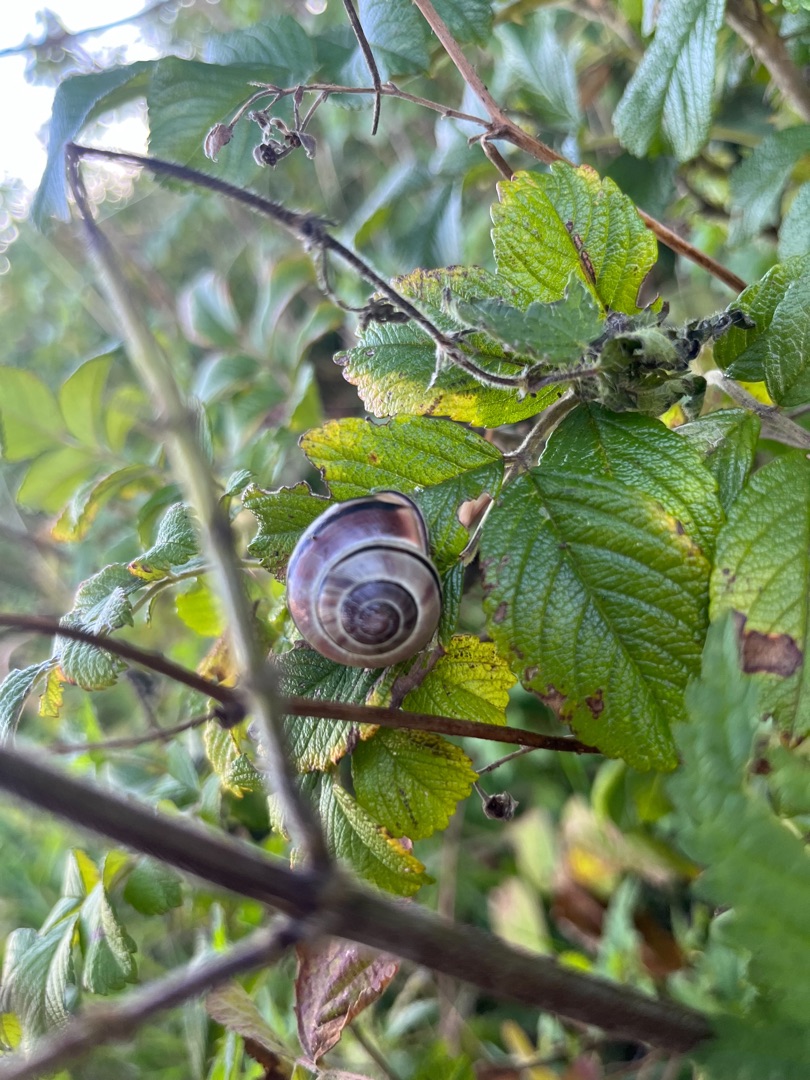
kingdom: Animalia
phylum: Mollusca
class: Gastropoda
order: Stylommatophora
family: Helicidae
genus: Cepaea
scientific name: Cepaea nemoralis
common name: Lundsnegl
